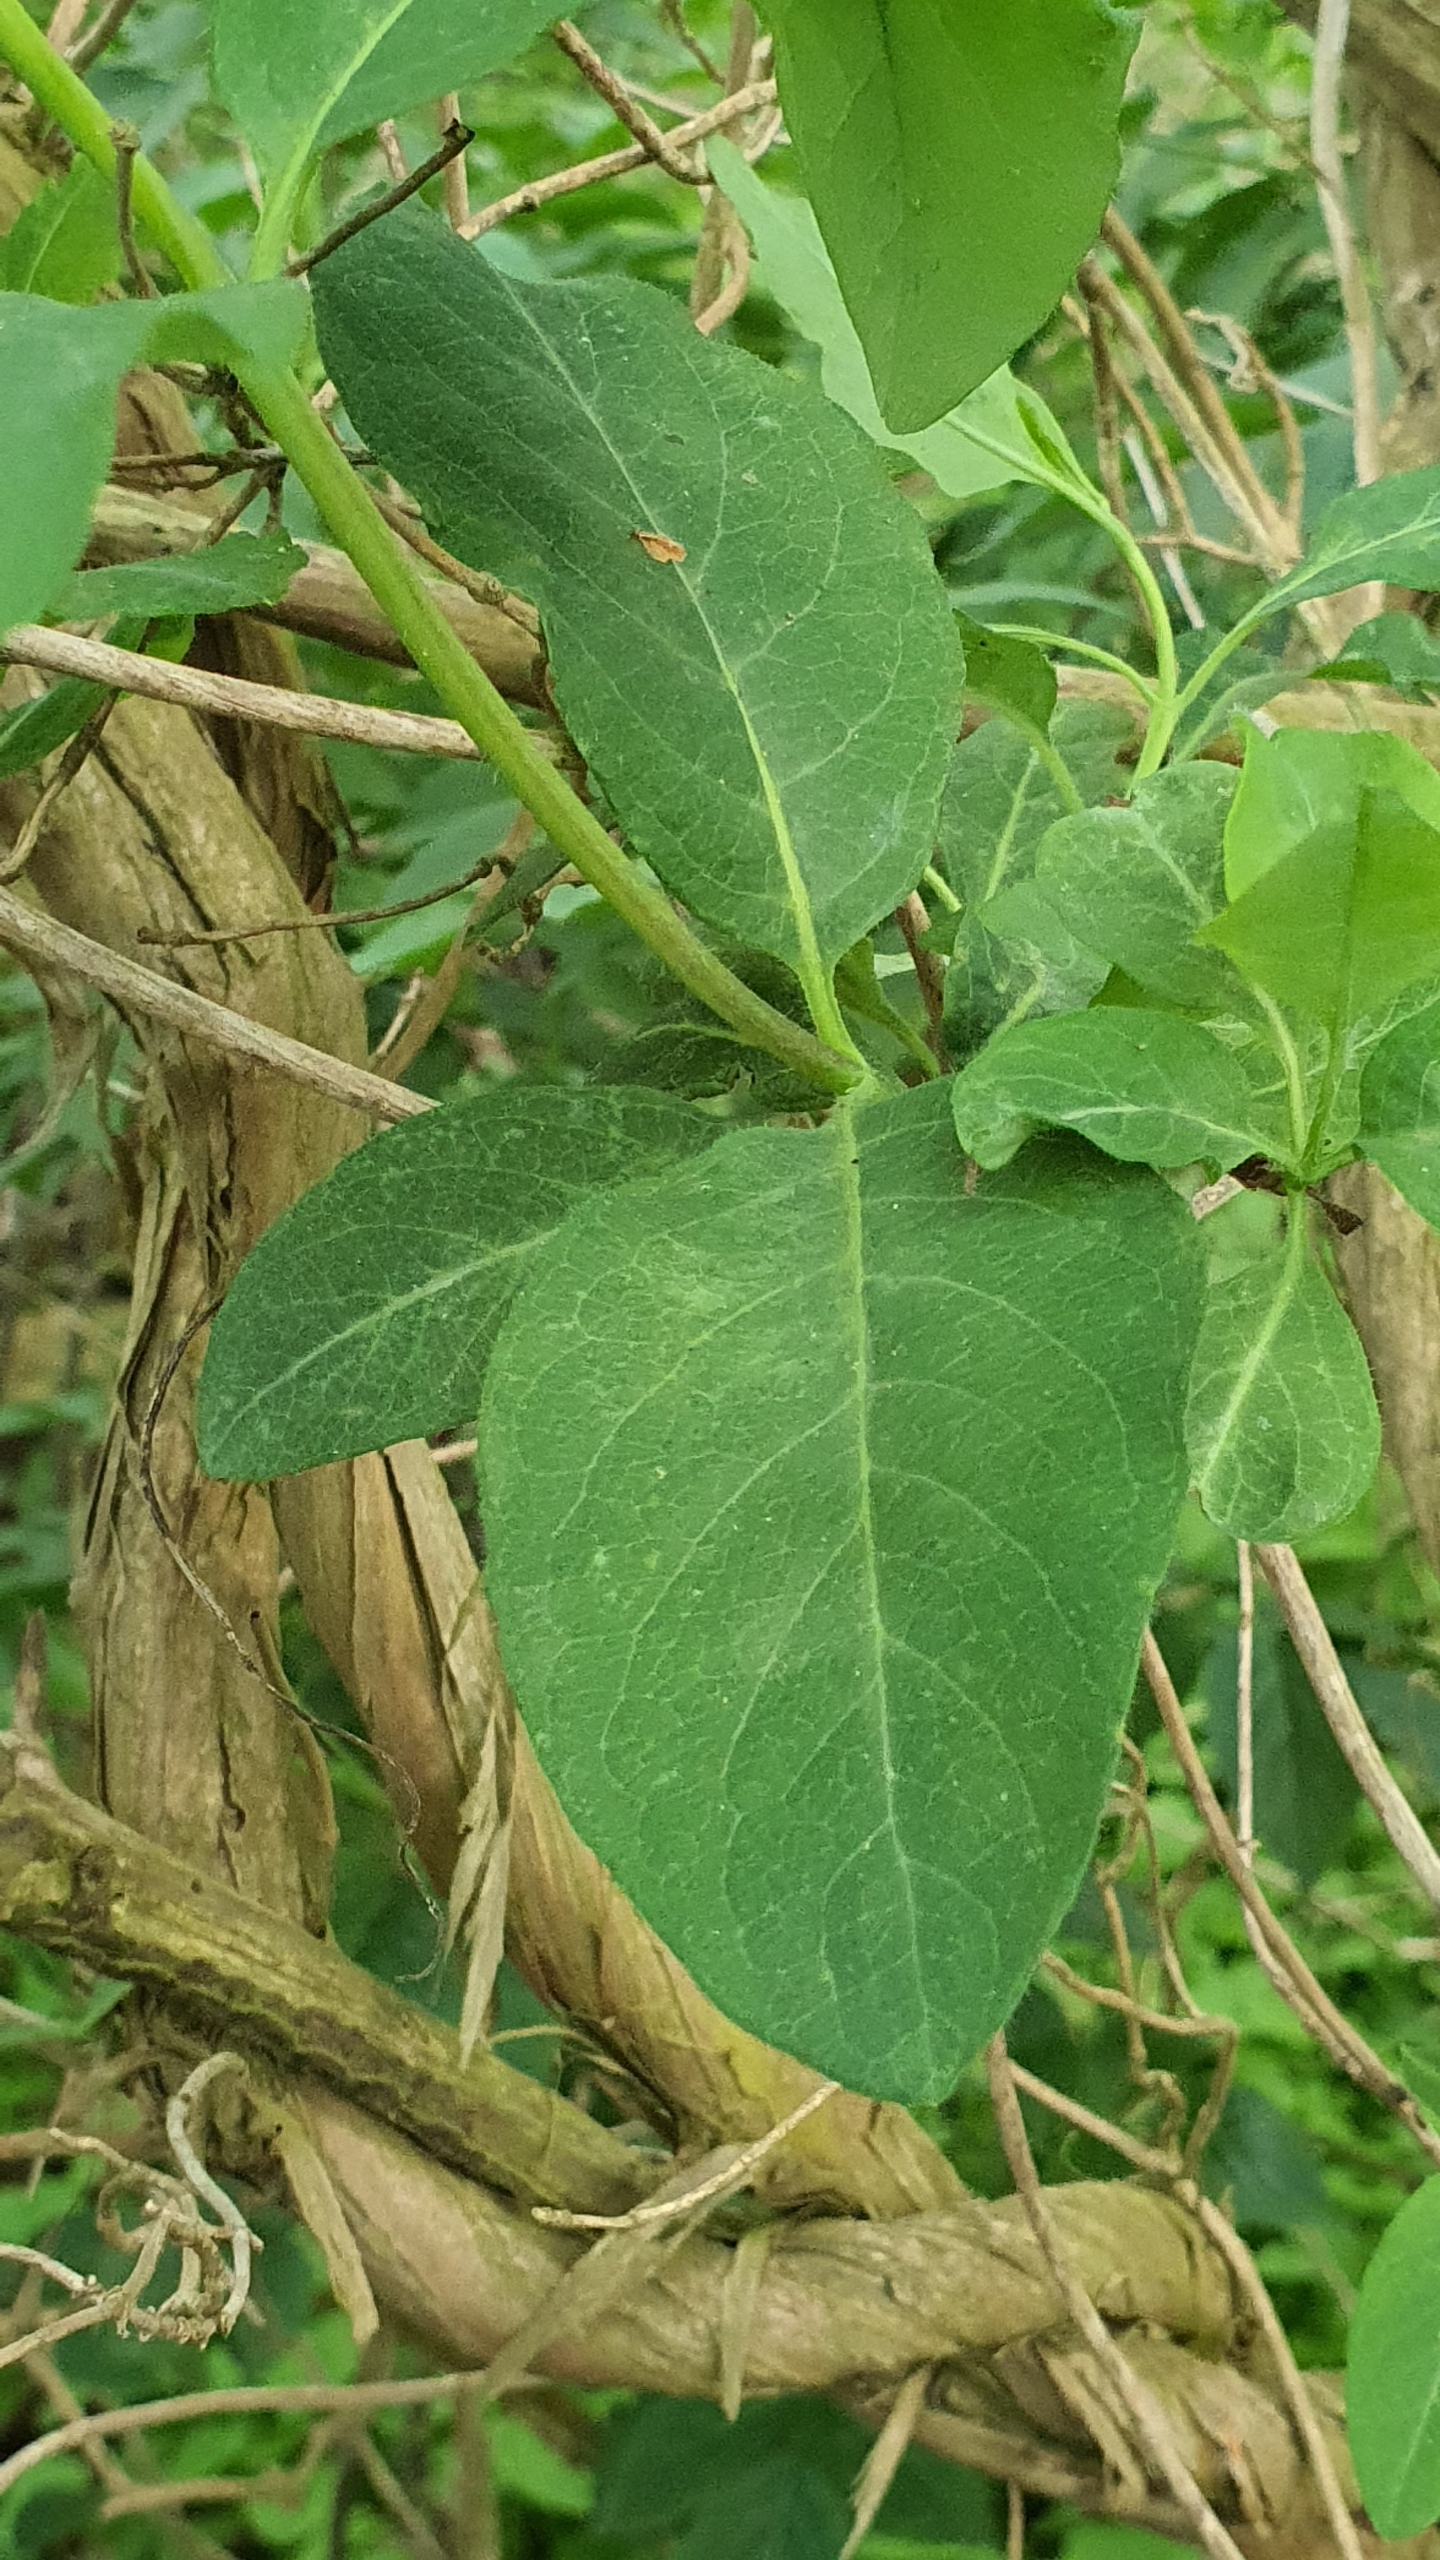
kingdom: Plantae
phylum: Tracheophyta
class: Magnoliopsida
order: Dipsacales
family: Caprifoliaceae
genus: Lonicera
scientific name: Lonicera periclymenum
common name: Almindelig gedeblad
